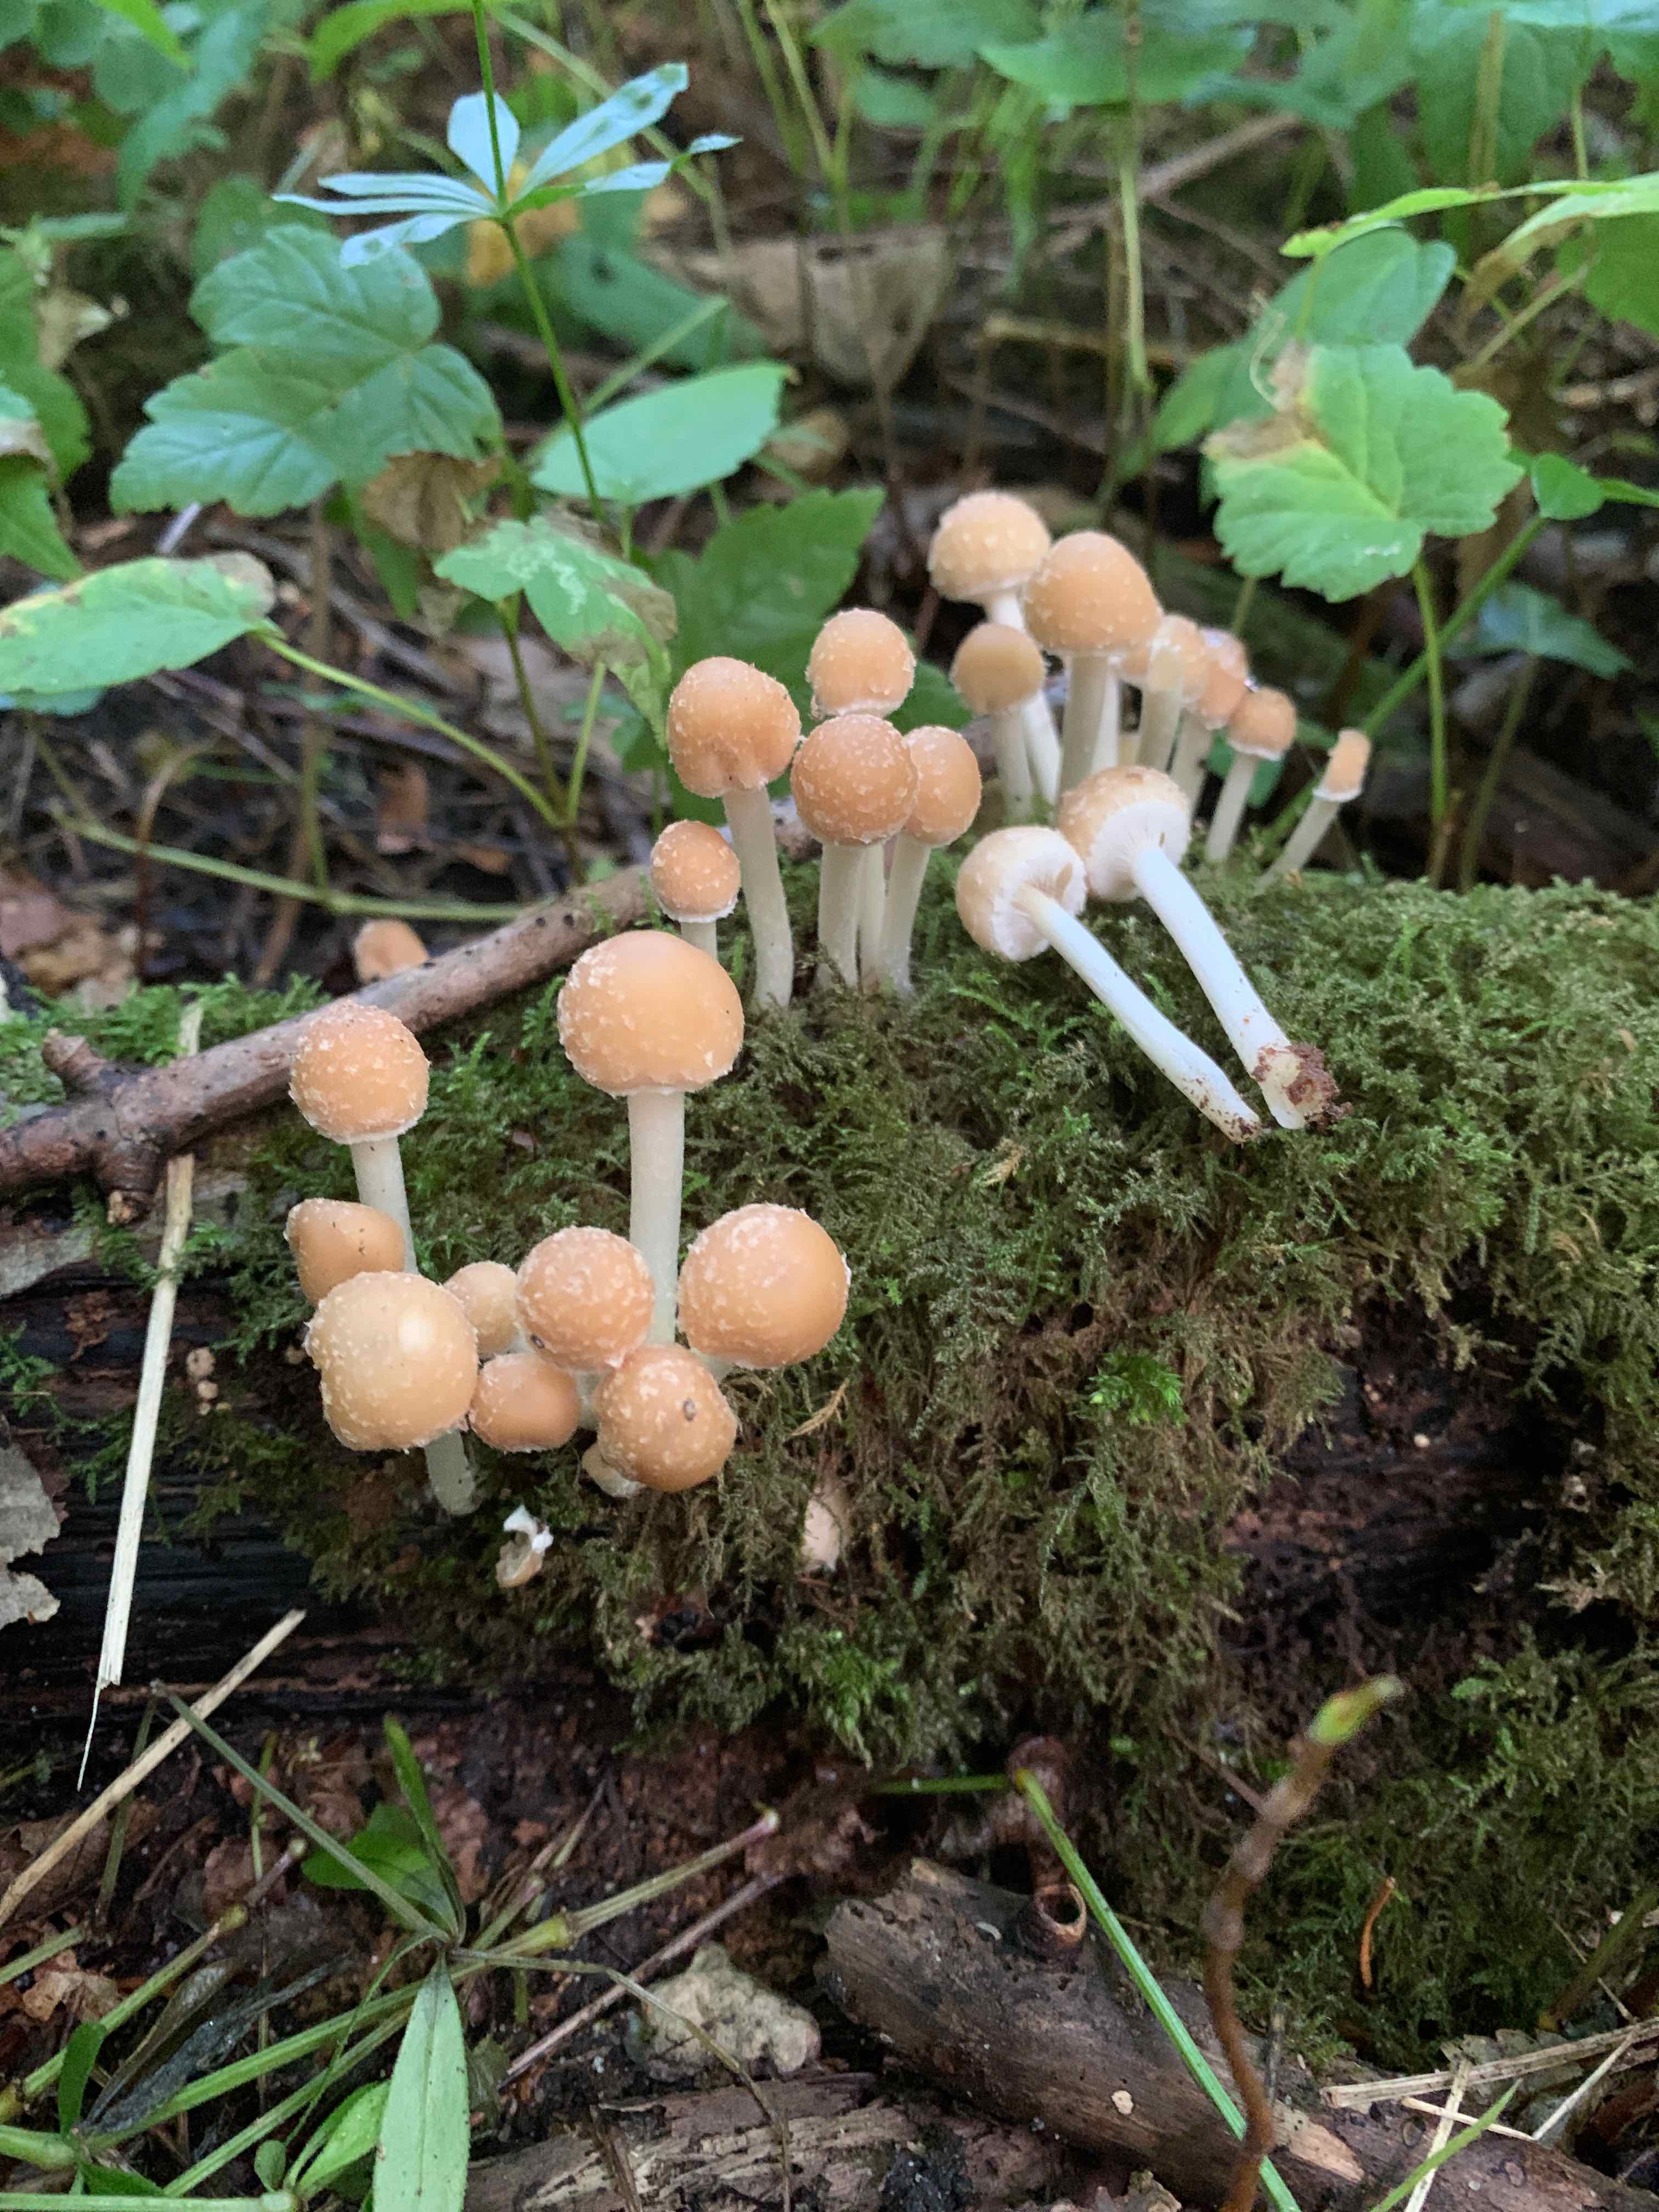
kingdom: Fungi
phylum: Basidiomycota
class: Agaricomycetes
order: Agaricales
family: Psathyrellaceae
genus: Candolleomyces
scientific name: Candolleomyces candolleanus
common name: Candolles mørkhat
